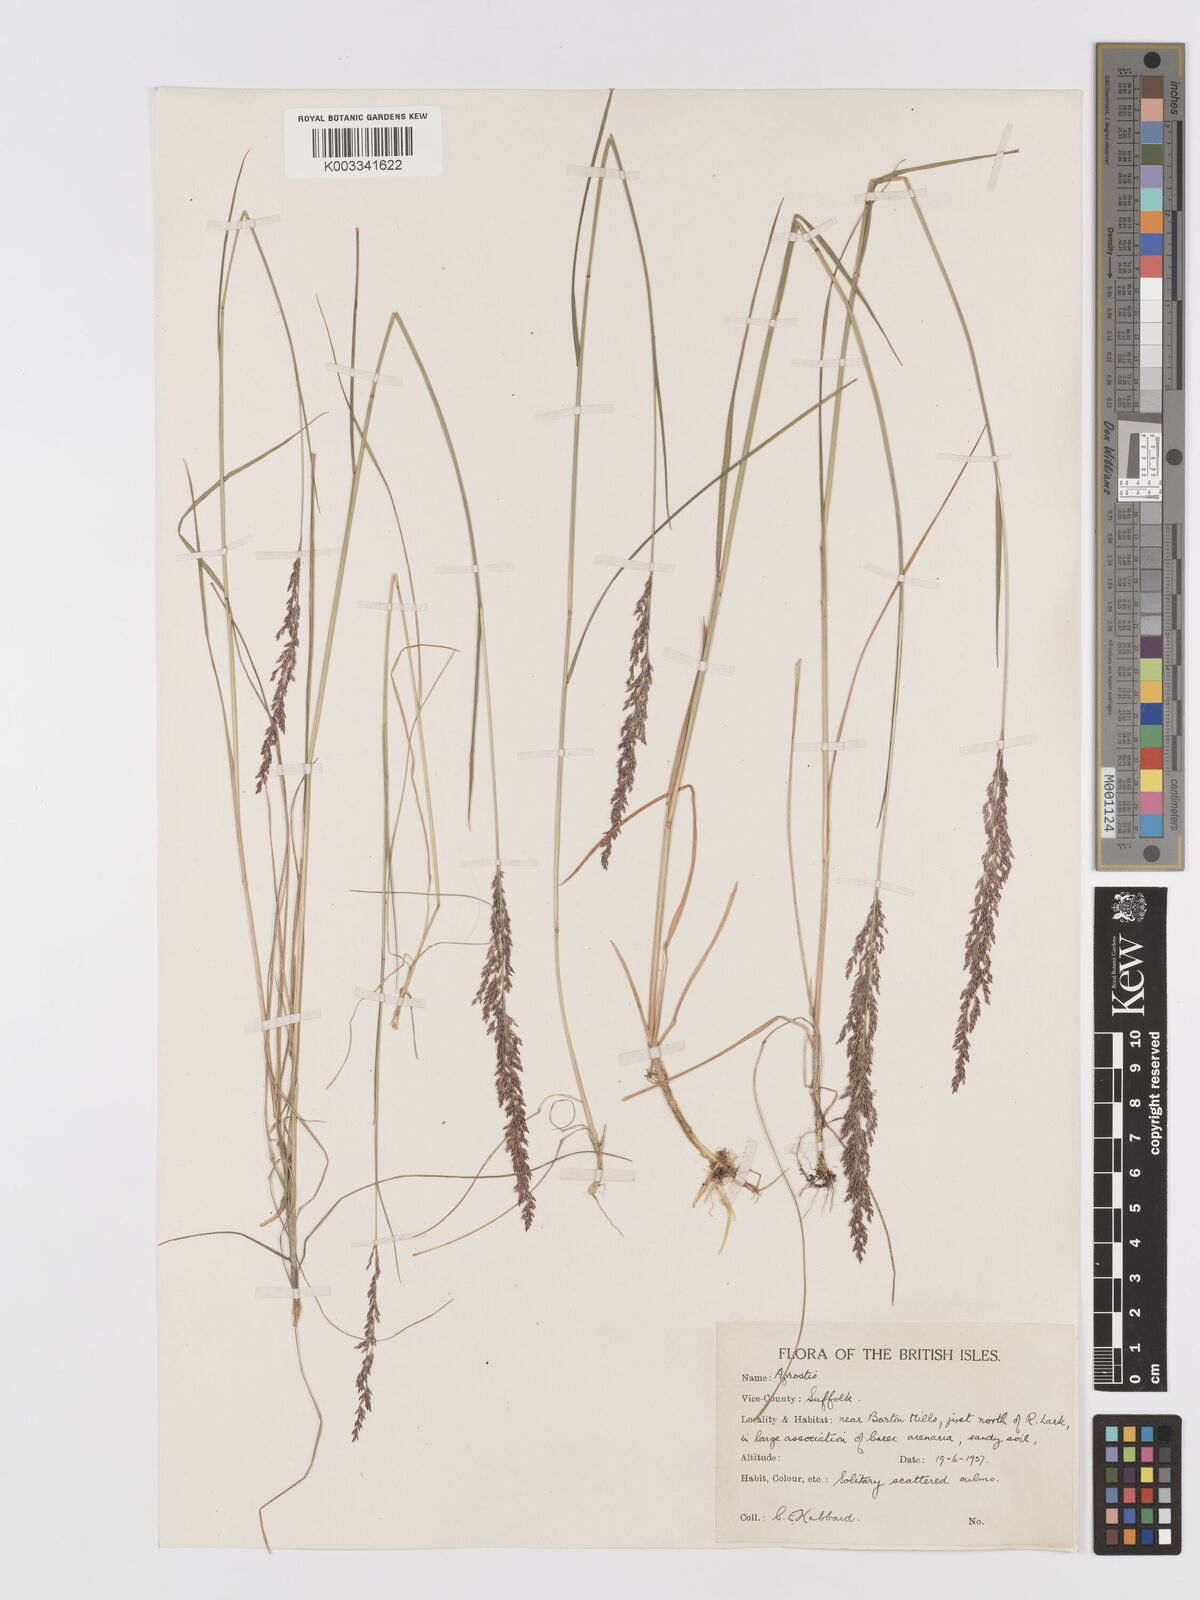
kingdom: Plantae
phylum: Tracheophyta
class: Liliopsida
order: Poales
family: Poaceae
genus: Agrostis
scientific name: Agrostis stolonifera
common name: Creeping bentgrass
